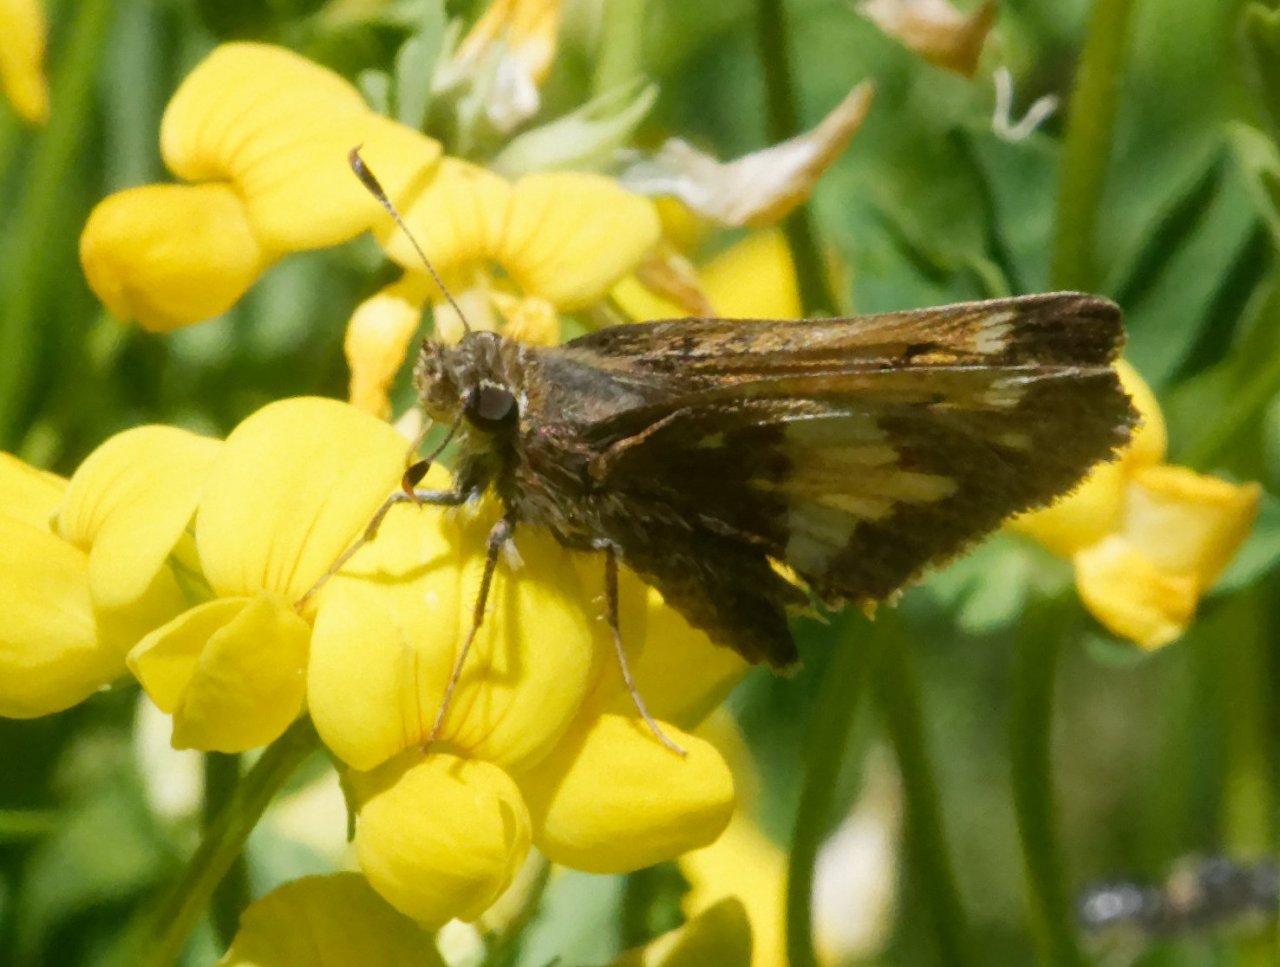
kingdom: Animalia
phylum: Arthropoda
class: Insecta
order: Lepidoptera
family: Hesperiidae
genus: Lon
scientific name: Lon hobomok
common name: Hobomok Skipper
